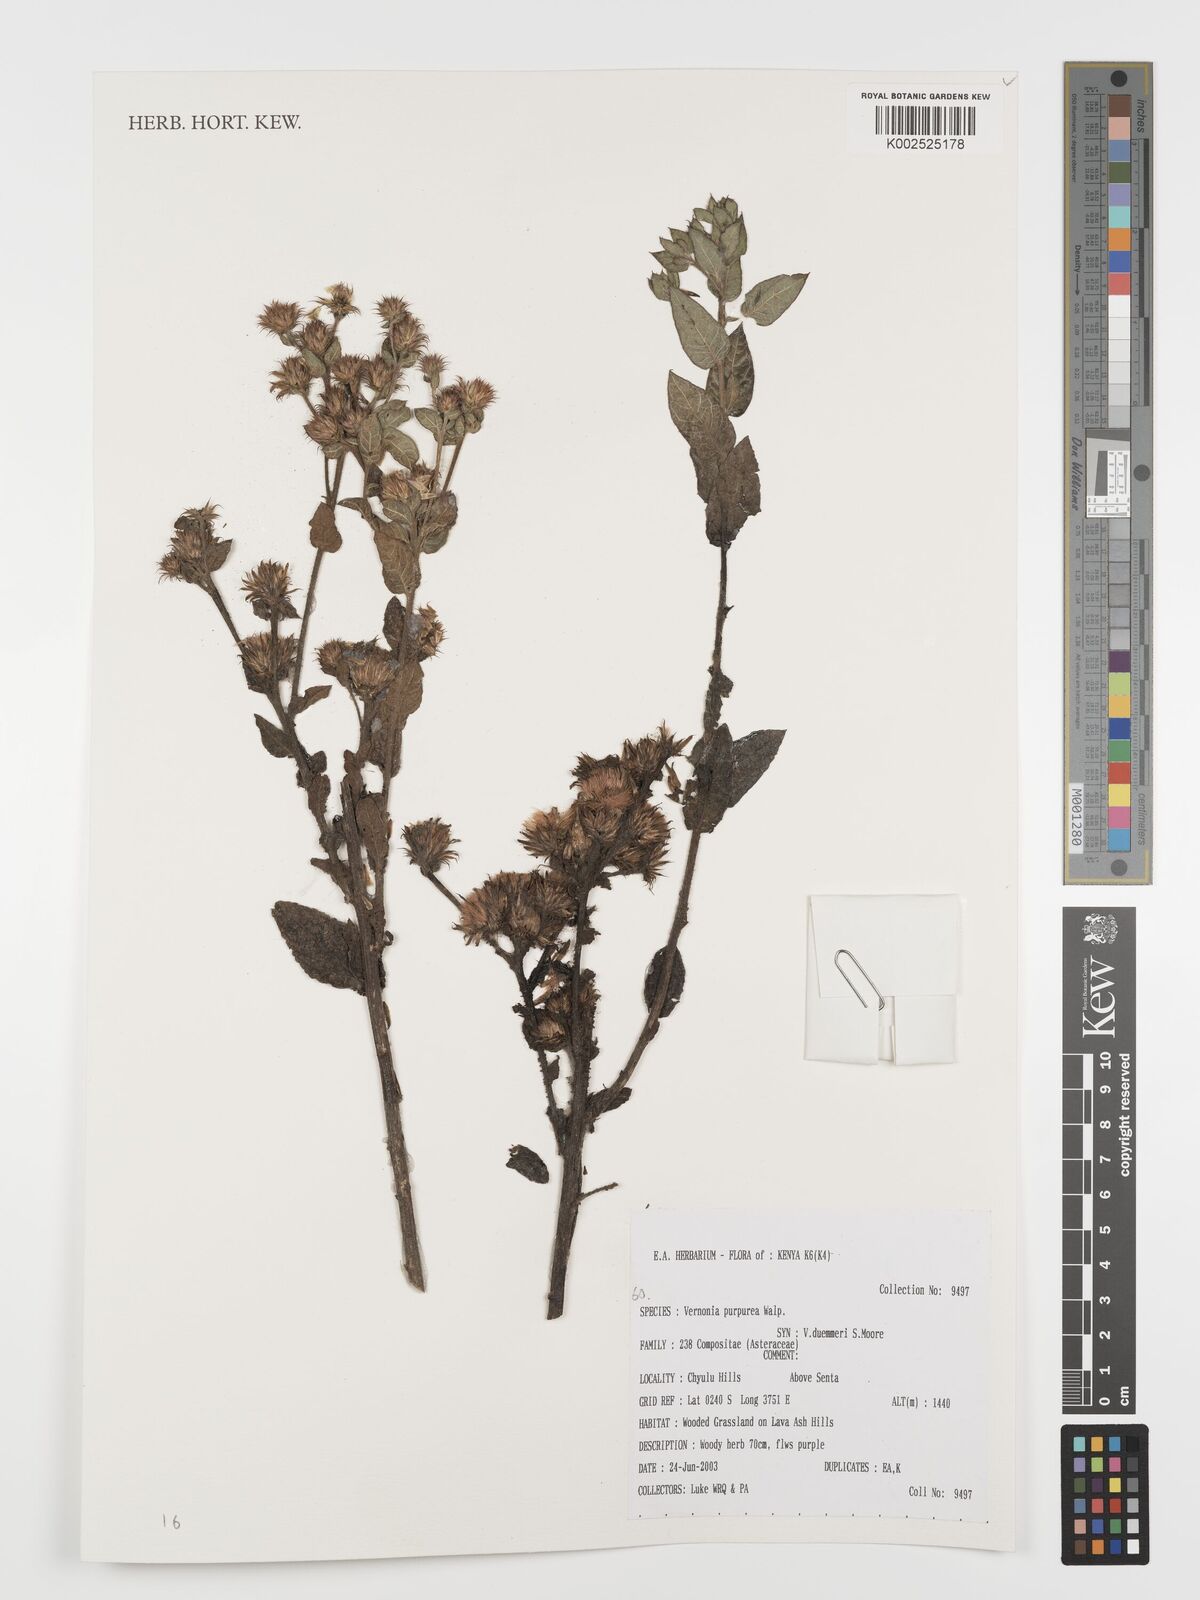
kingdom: Plantae
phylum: Tracheophyta
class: Magnoliopsida
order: Asterales
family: Asteraceae
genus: Nothovernonia
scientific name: Nothovernonia purpurea
